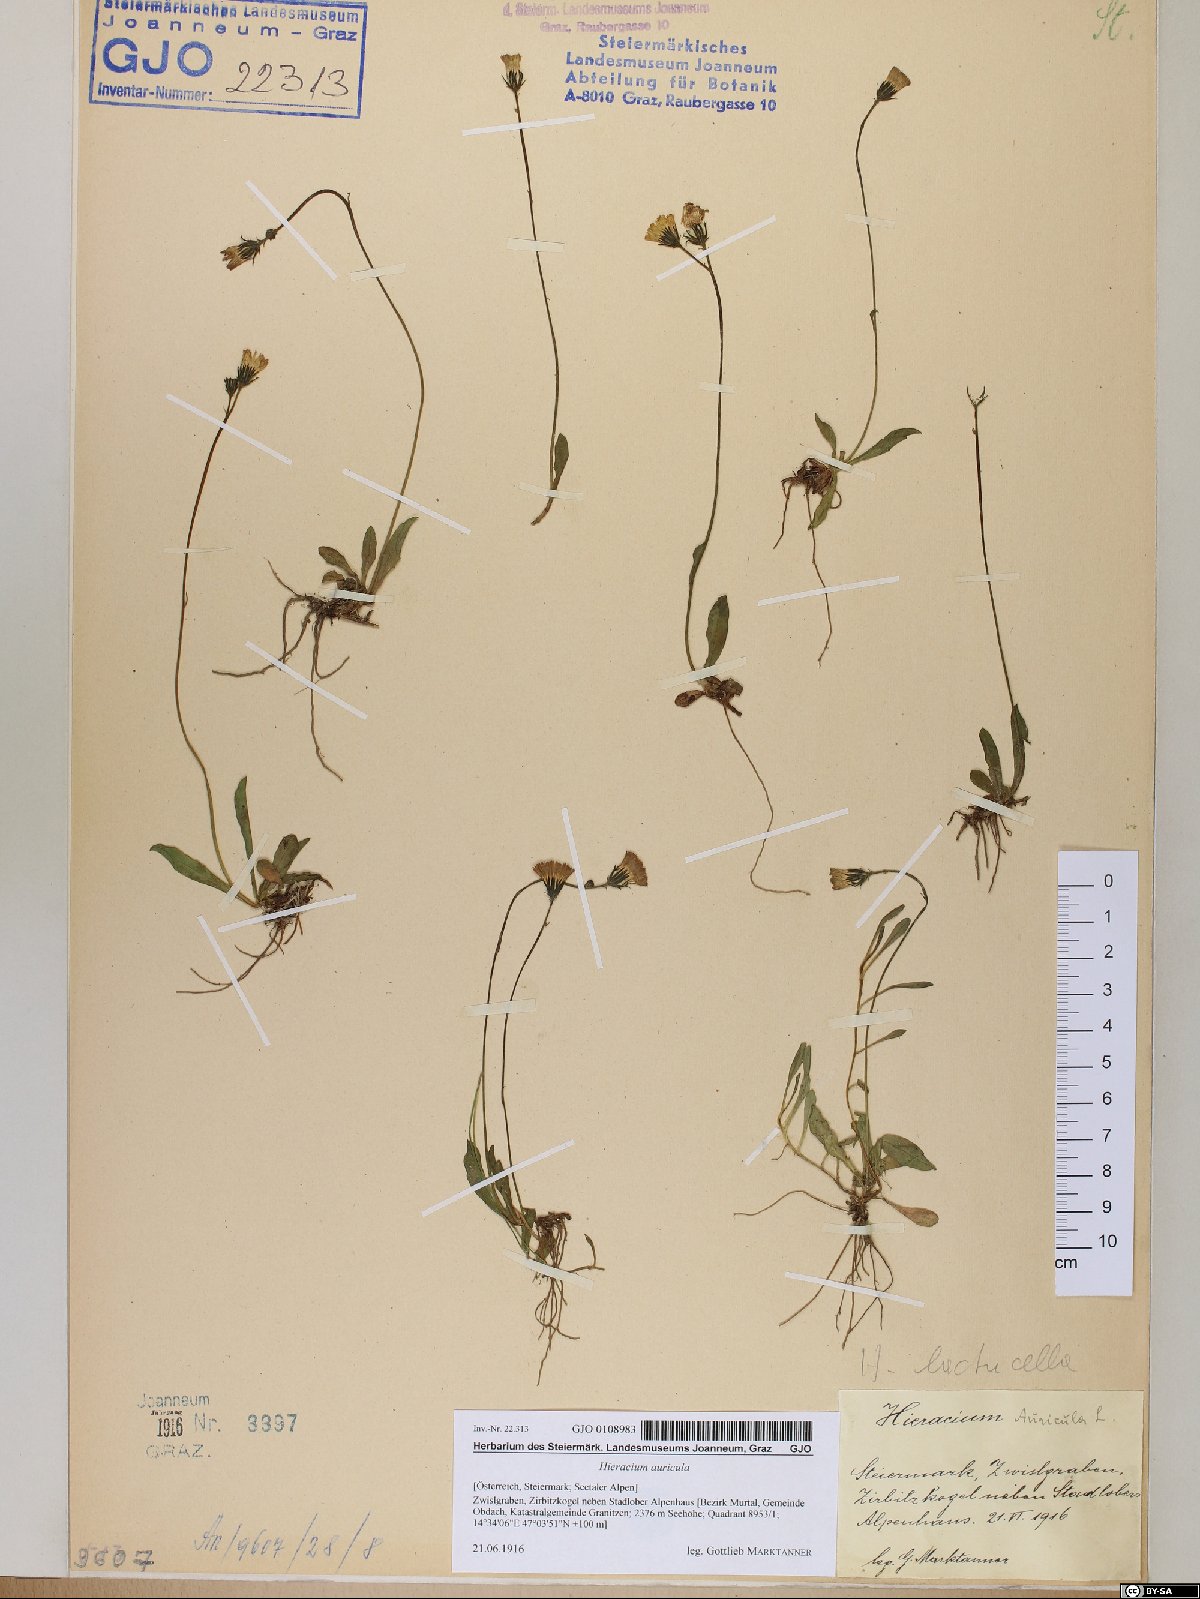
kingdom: Plantae
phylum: Tracheophyta
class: Magnoliopsida
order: Asterales
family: Asteraceae
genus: Hieracium
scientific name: Hieracium auricula
